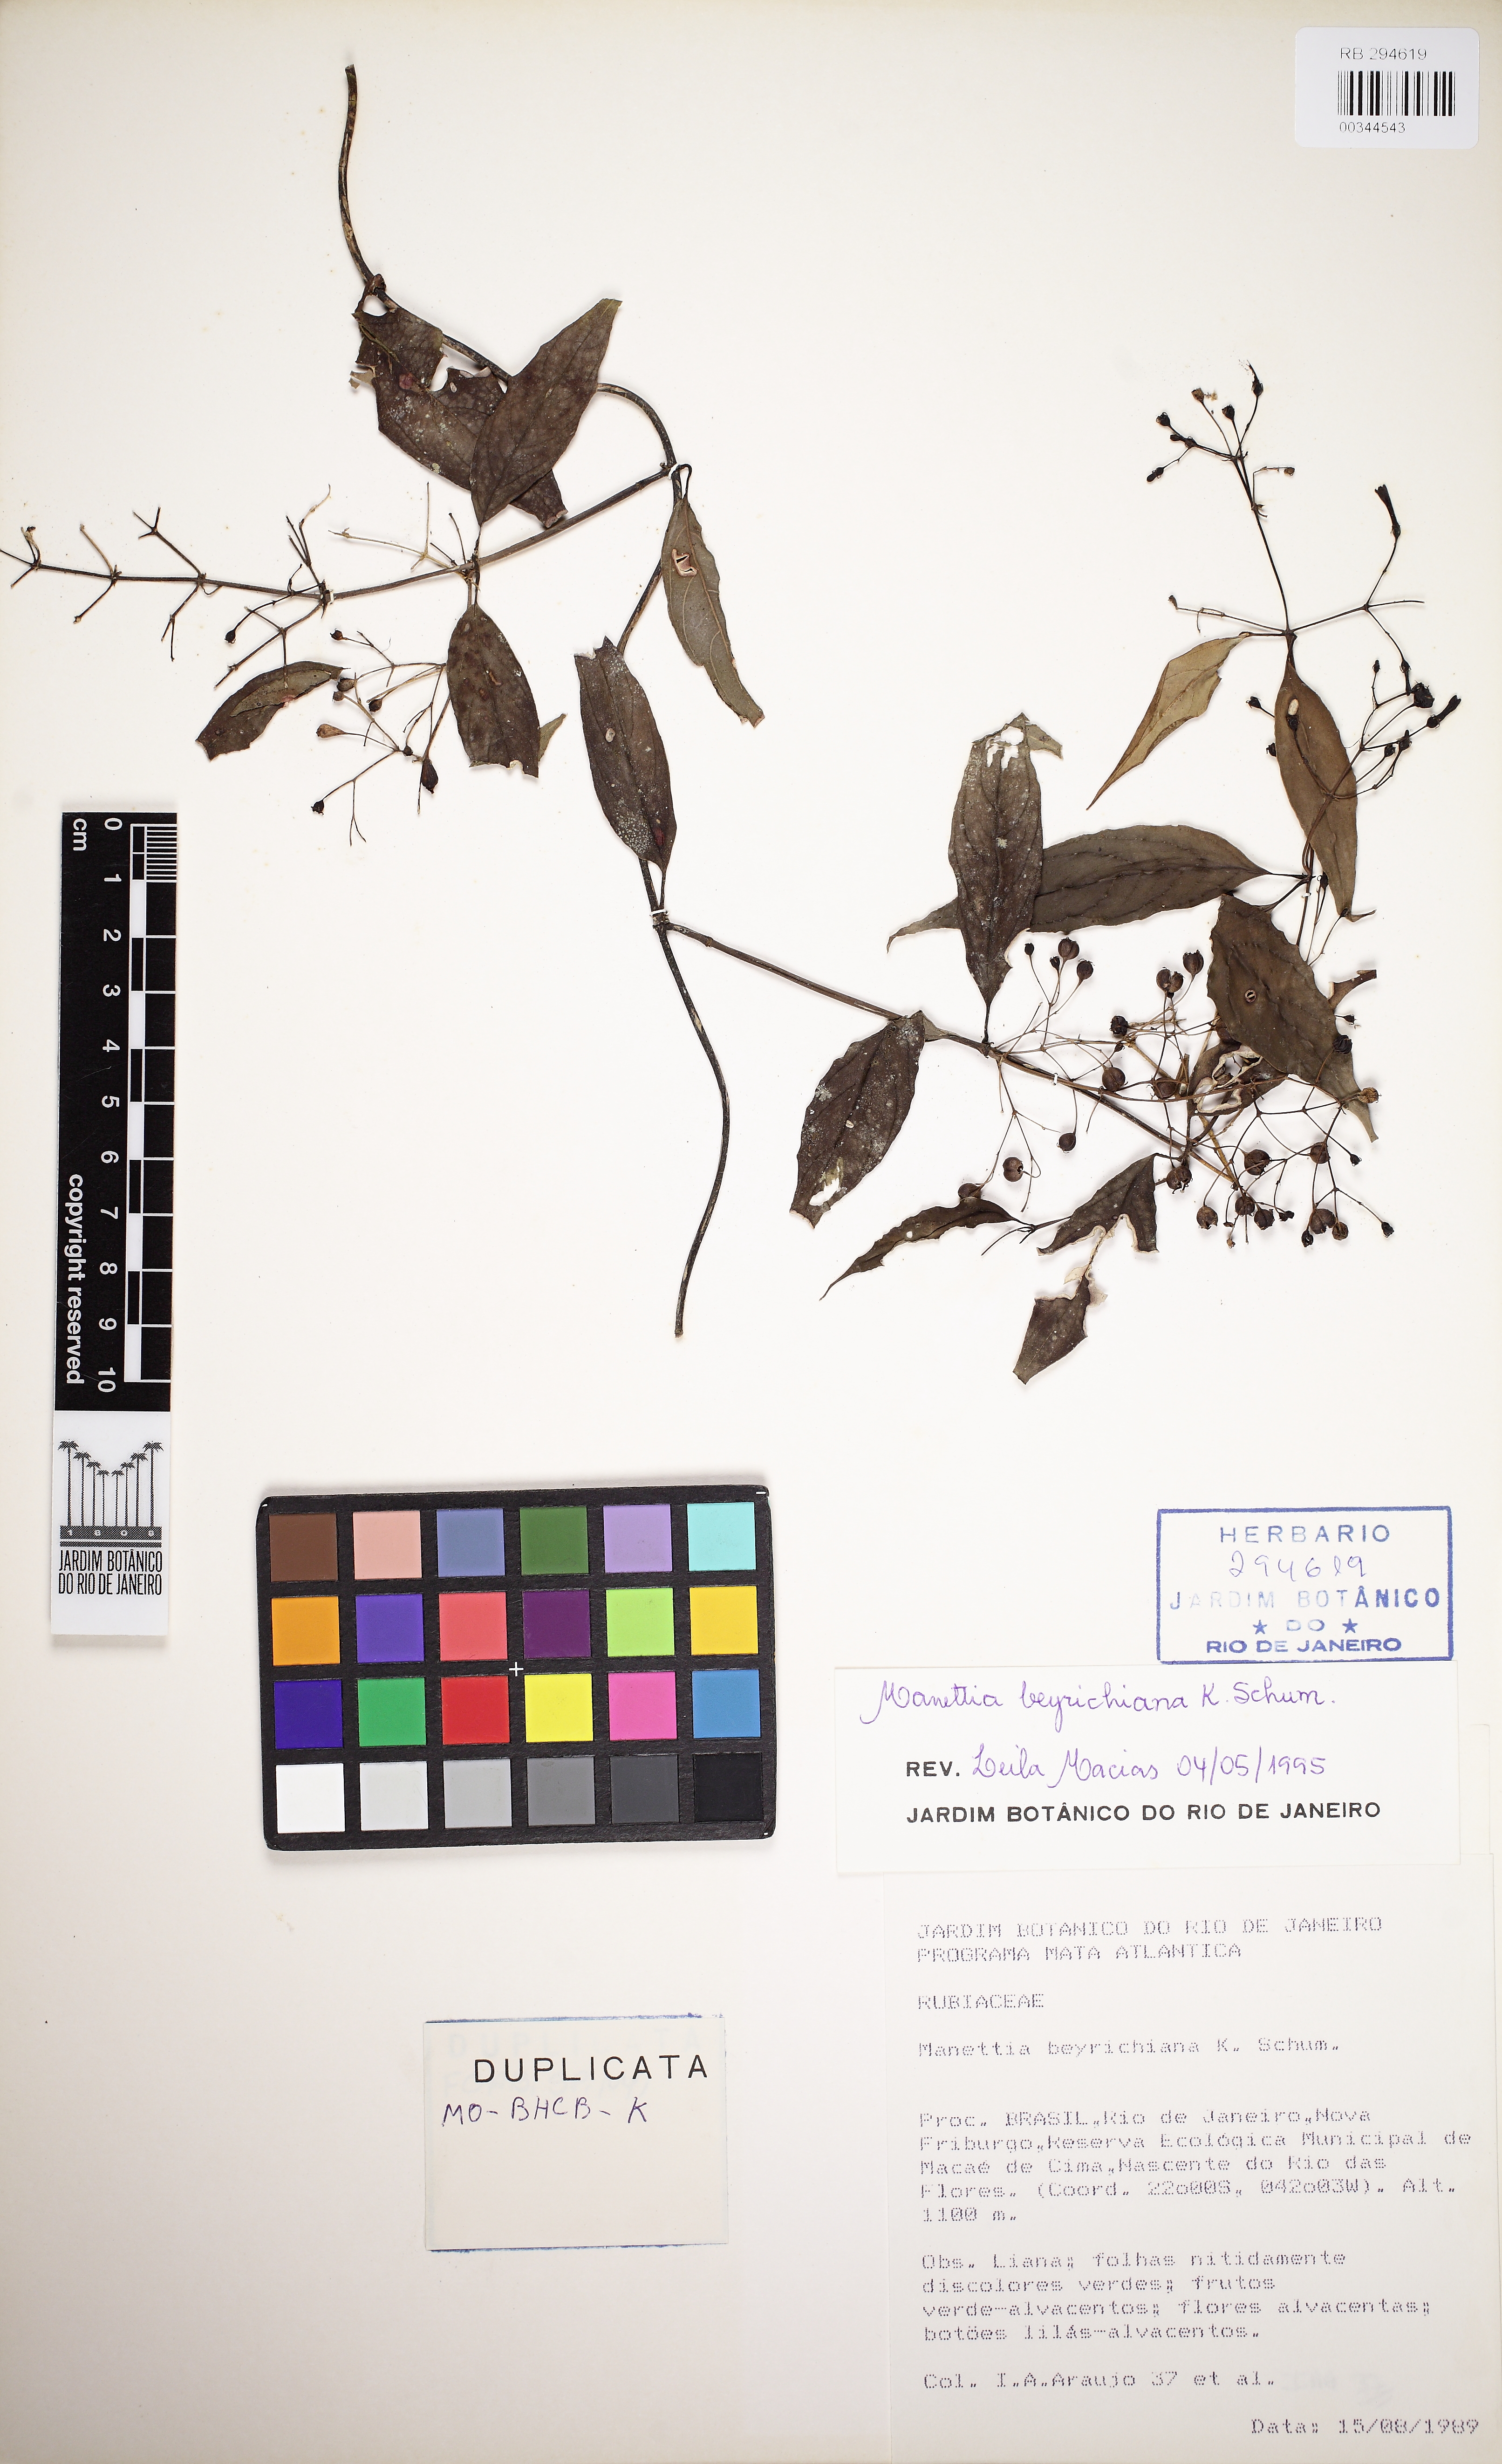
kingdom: Plantae
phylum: Tracheophyta
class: Magnoliopsida
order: Gentianales
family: Rubiaceae
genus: Manettia
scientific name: Manettia beyrichiana
